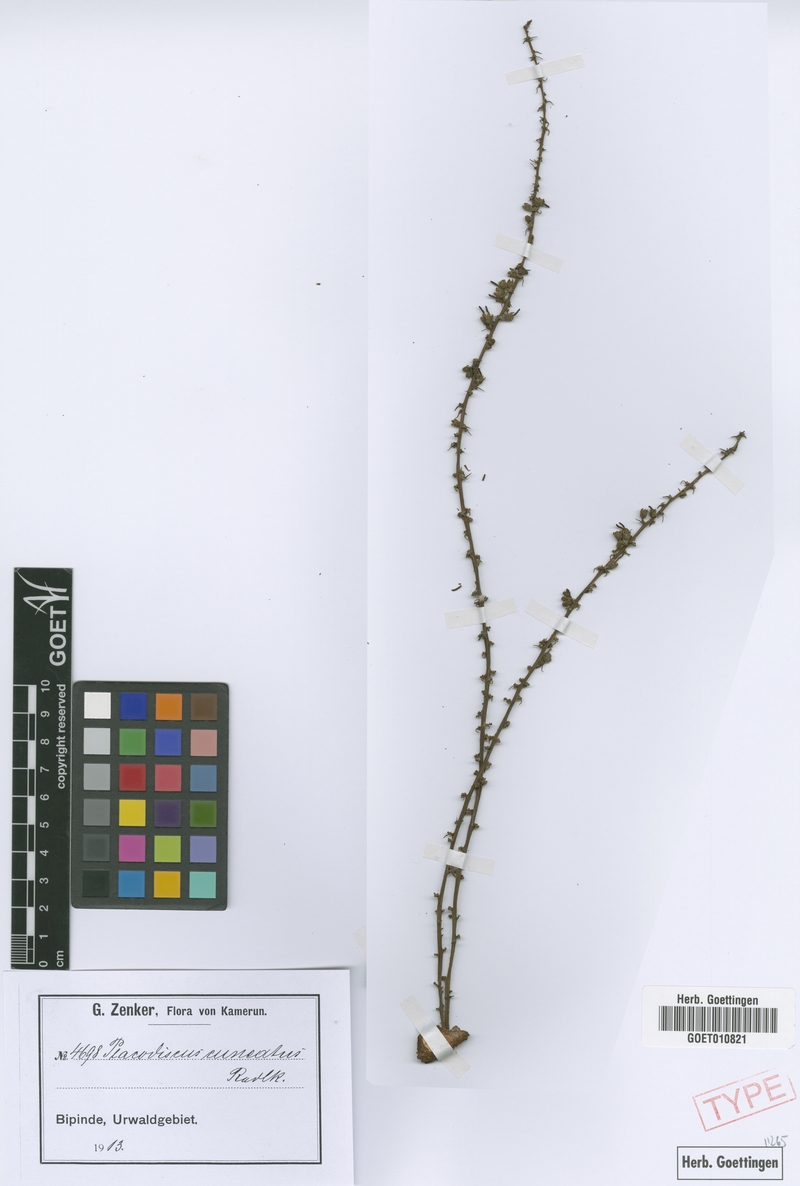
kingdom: Plantae
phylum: Tracheophyta
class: Magnoliopsida
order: Sapindales
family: Sapindaceae
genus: Placodiscus
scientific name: Placodiscus angustifolius
